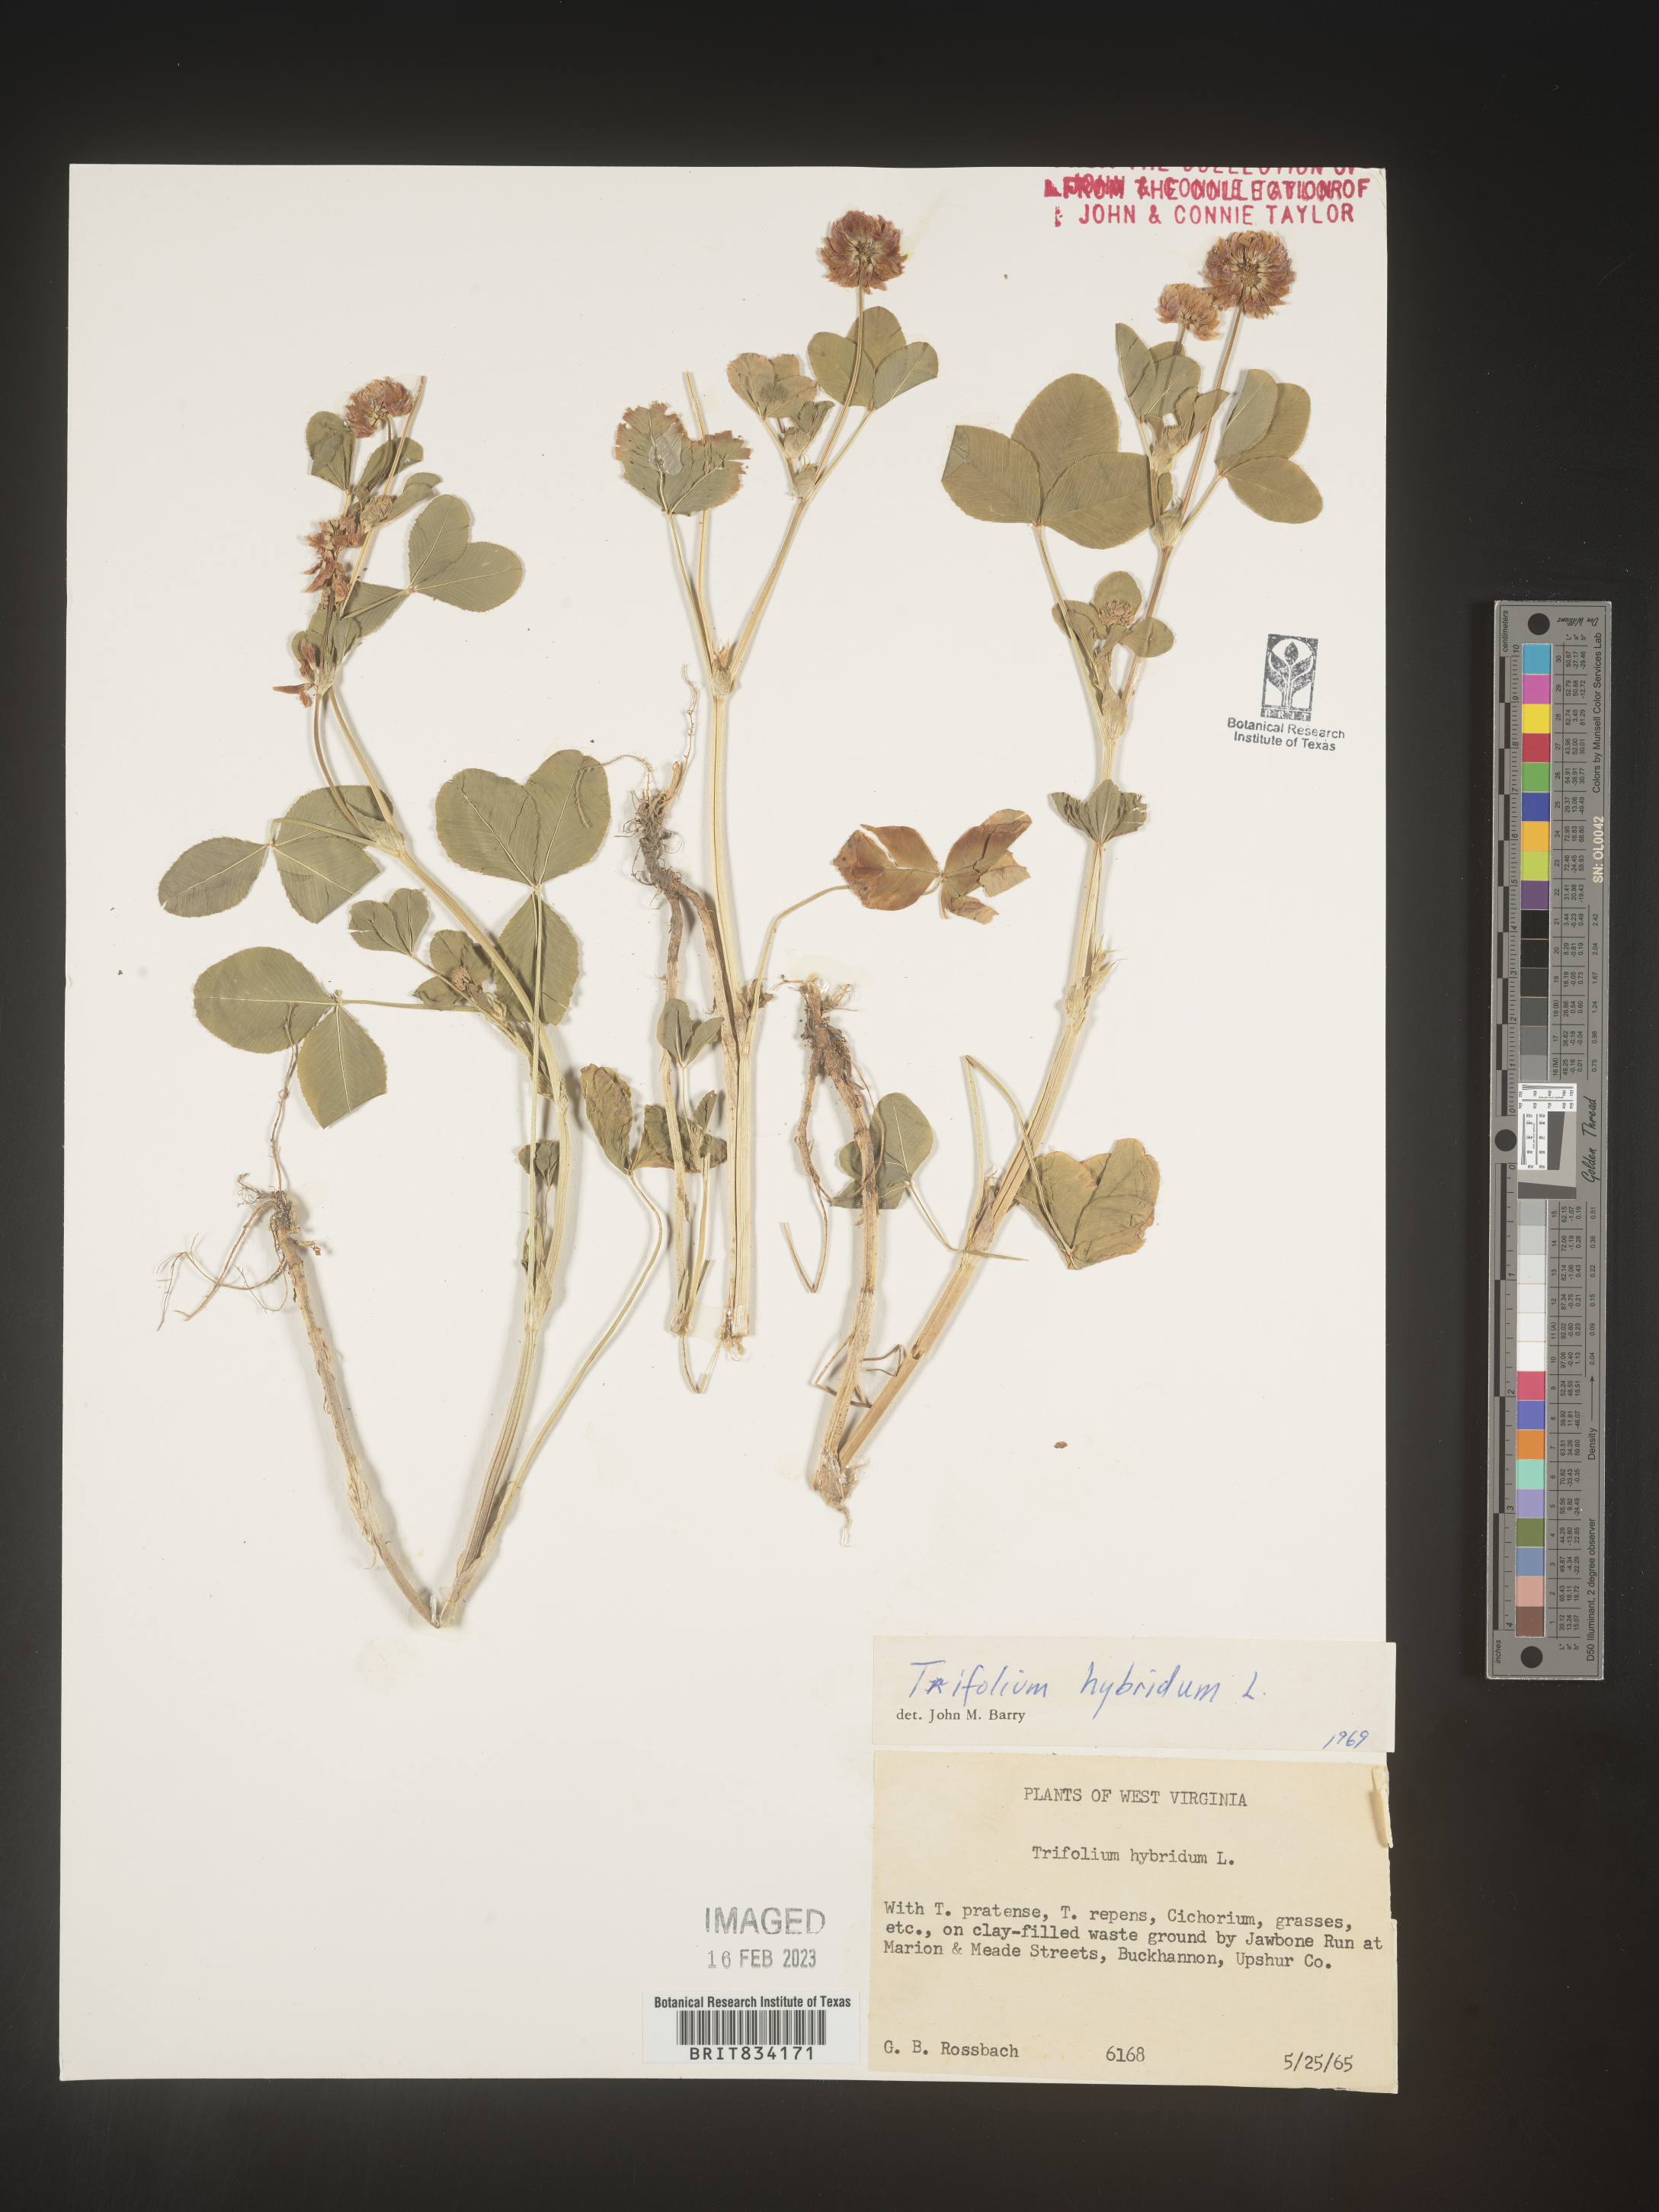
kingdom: Plantae
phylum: Tracheophyta
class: Magnoliopsida
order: Fabales
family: Fabaceae
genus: Trifolium
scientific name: Trifolium hybridum
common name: Alsike clover
